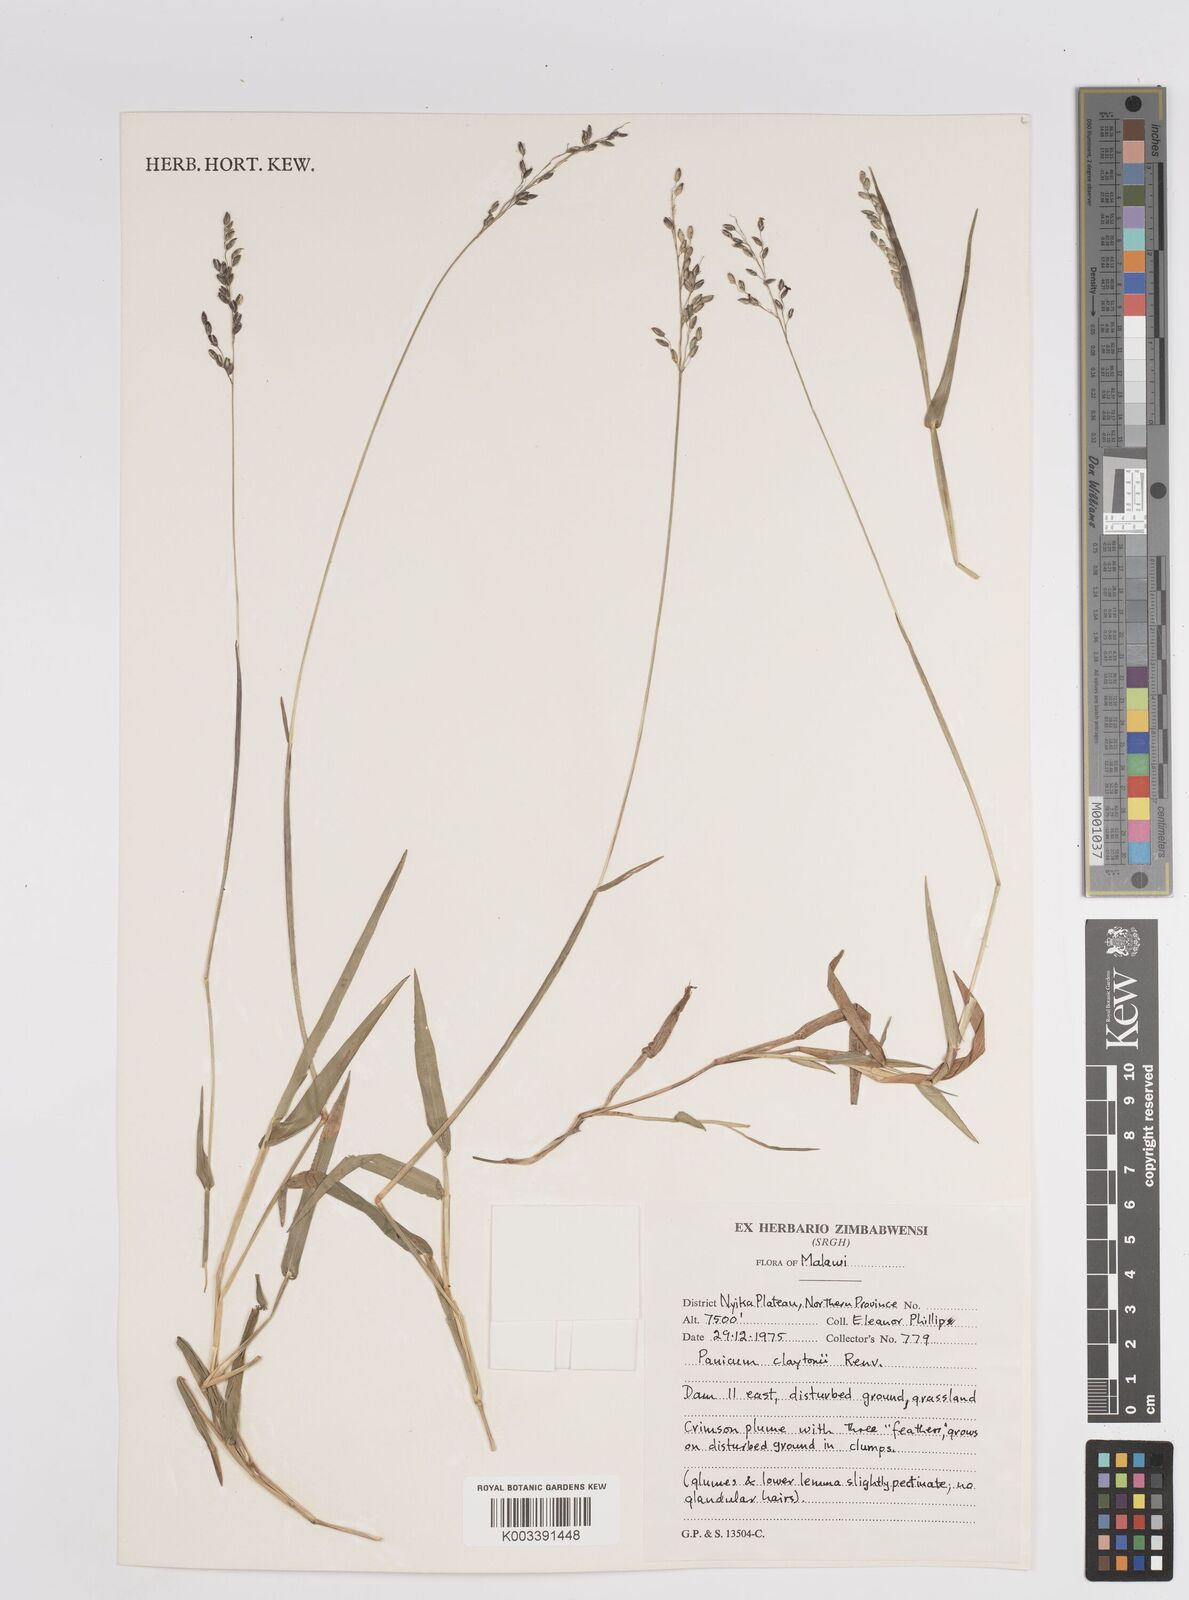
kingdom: Plantae
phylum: Tracheophyta
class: Liliopsida
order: Poales
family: Poaceae
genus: Adenochloa
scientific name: Adenochloa claytonii
